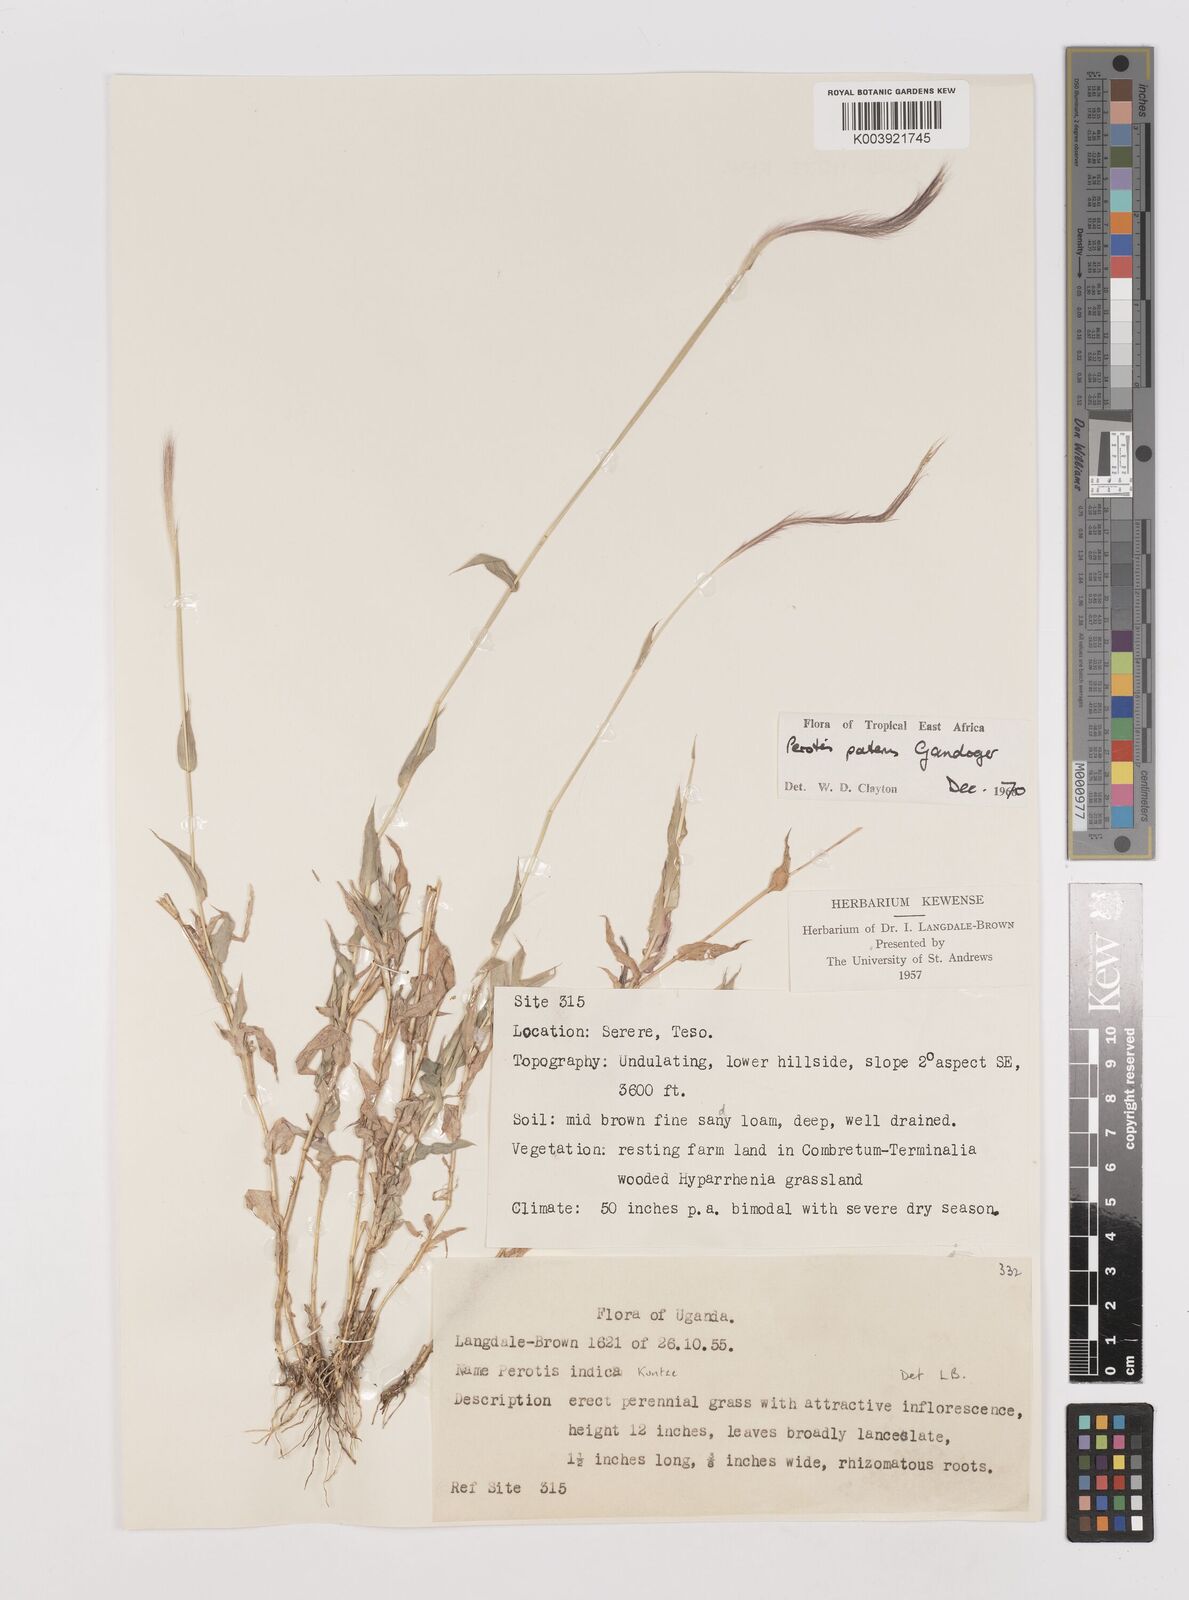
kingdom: Plantae
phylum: Tracheophyta
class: Liliopsida
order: Poales
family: Poaceae
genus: Perotis
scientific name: Perotis patens
